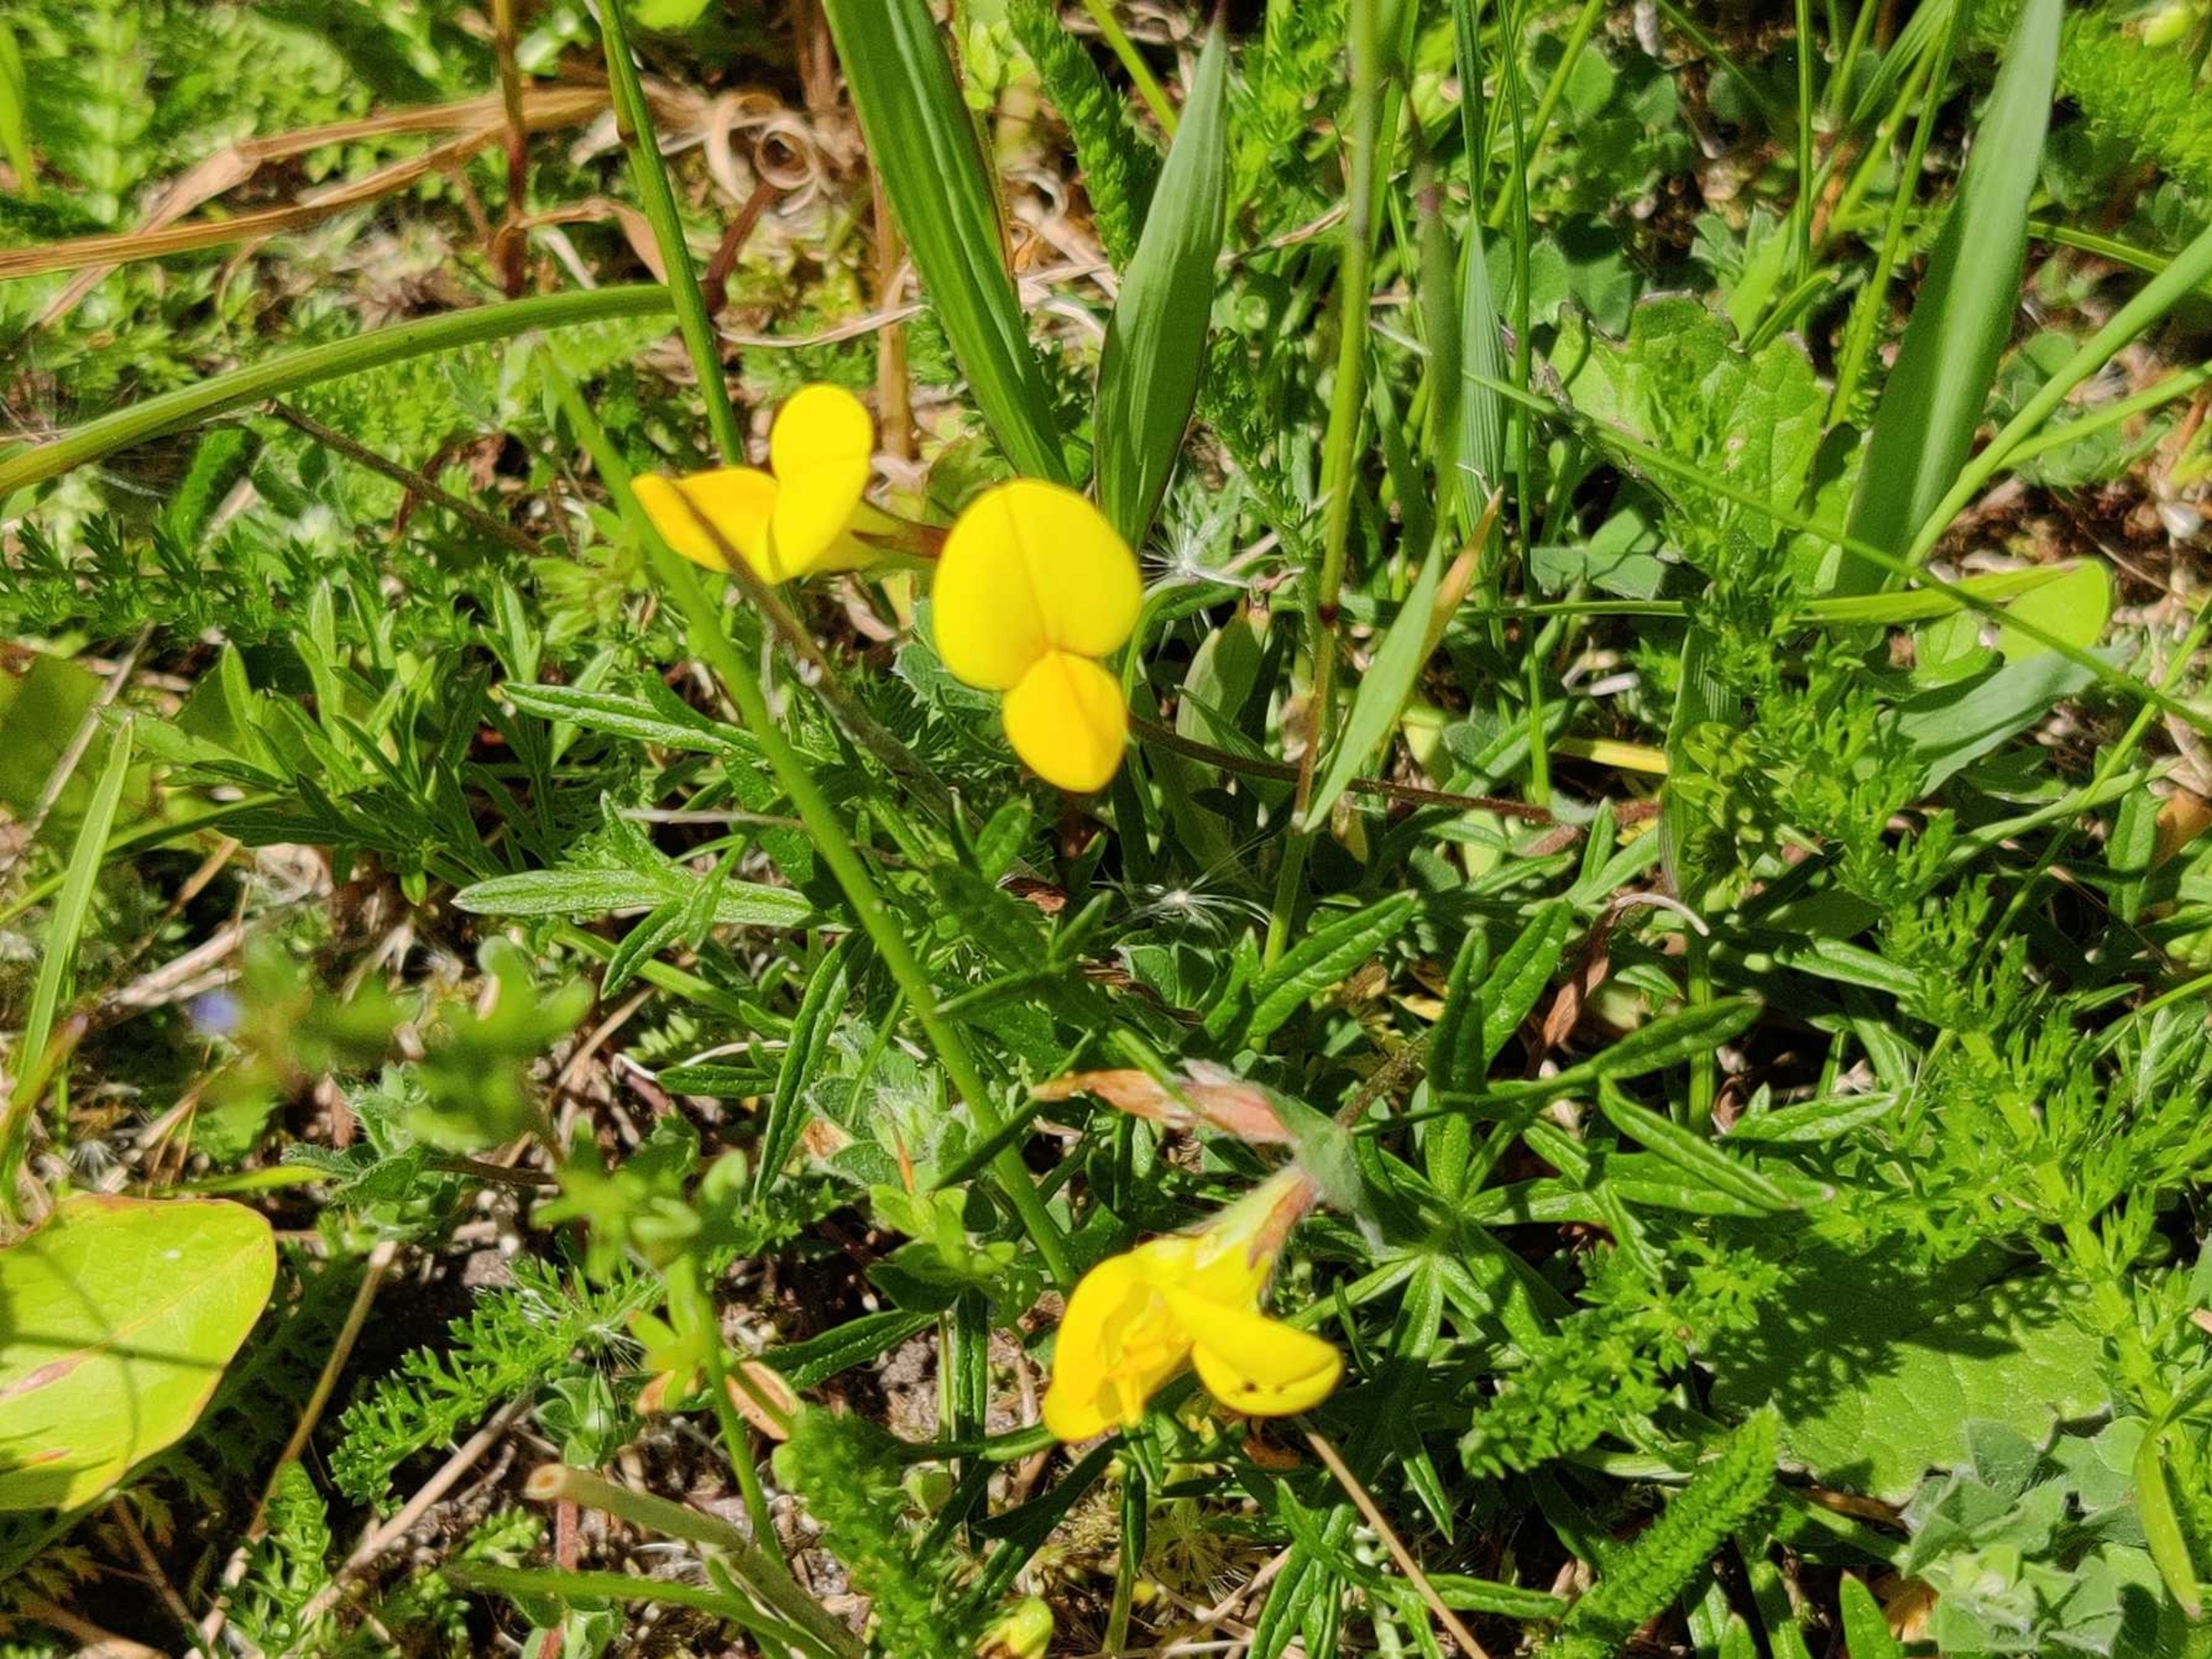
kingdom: Plantae
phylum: Tracheophyta
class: Magnoliopsida
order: Fabales
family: Fabaceae
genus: Lotus
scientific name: Lotus corniculatus
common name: Almindelig kællingetand
